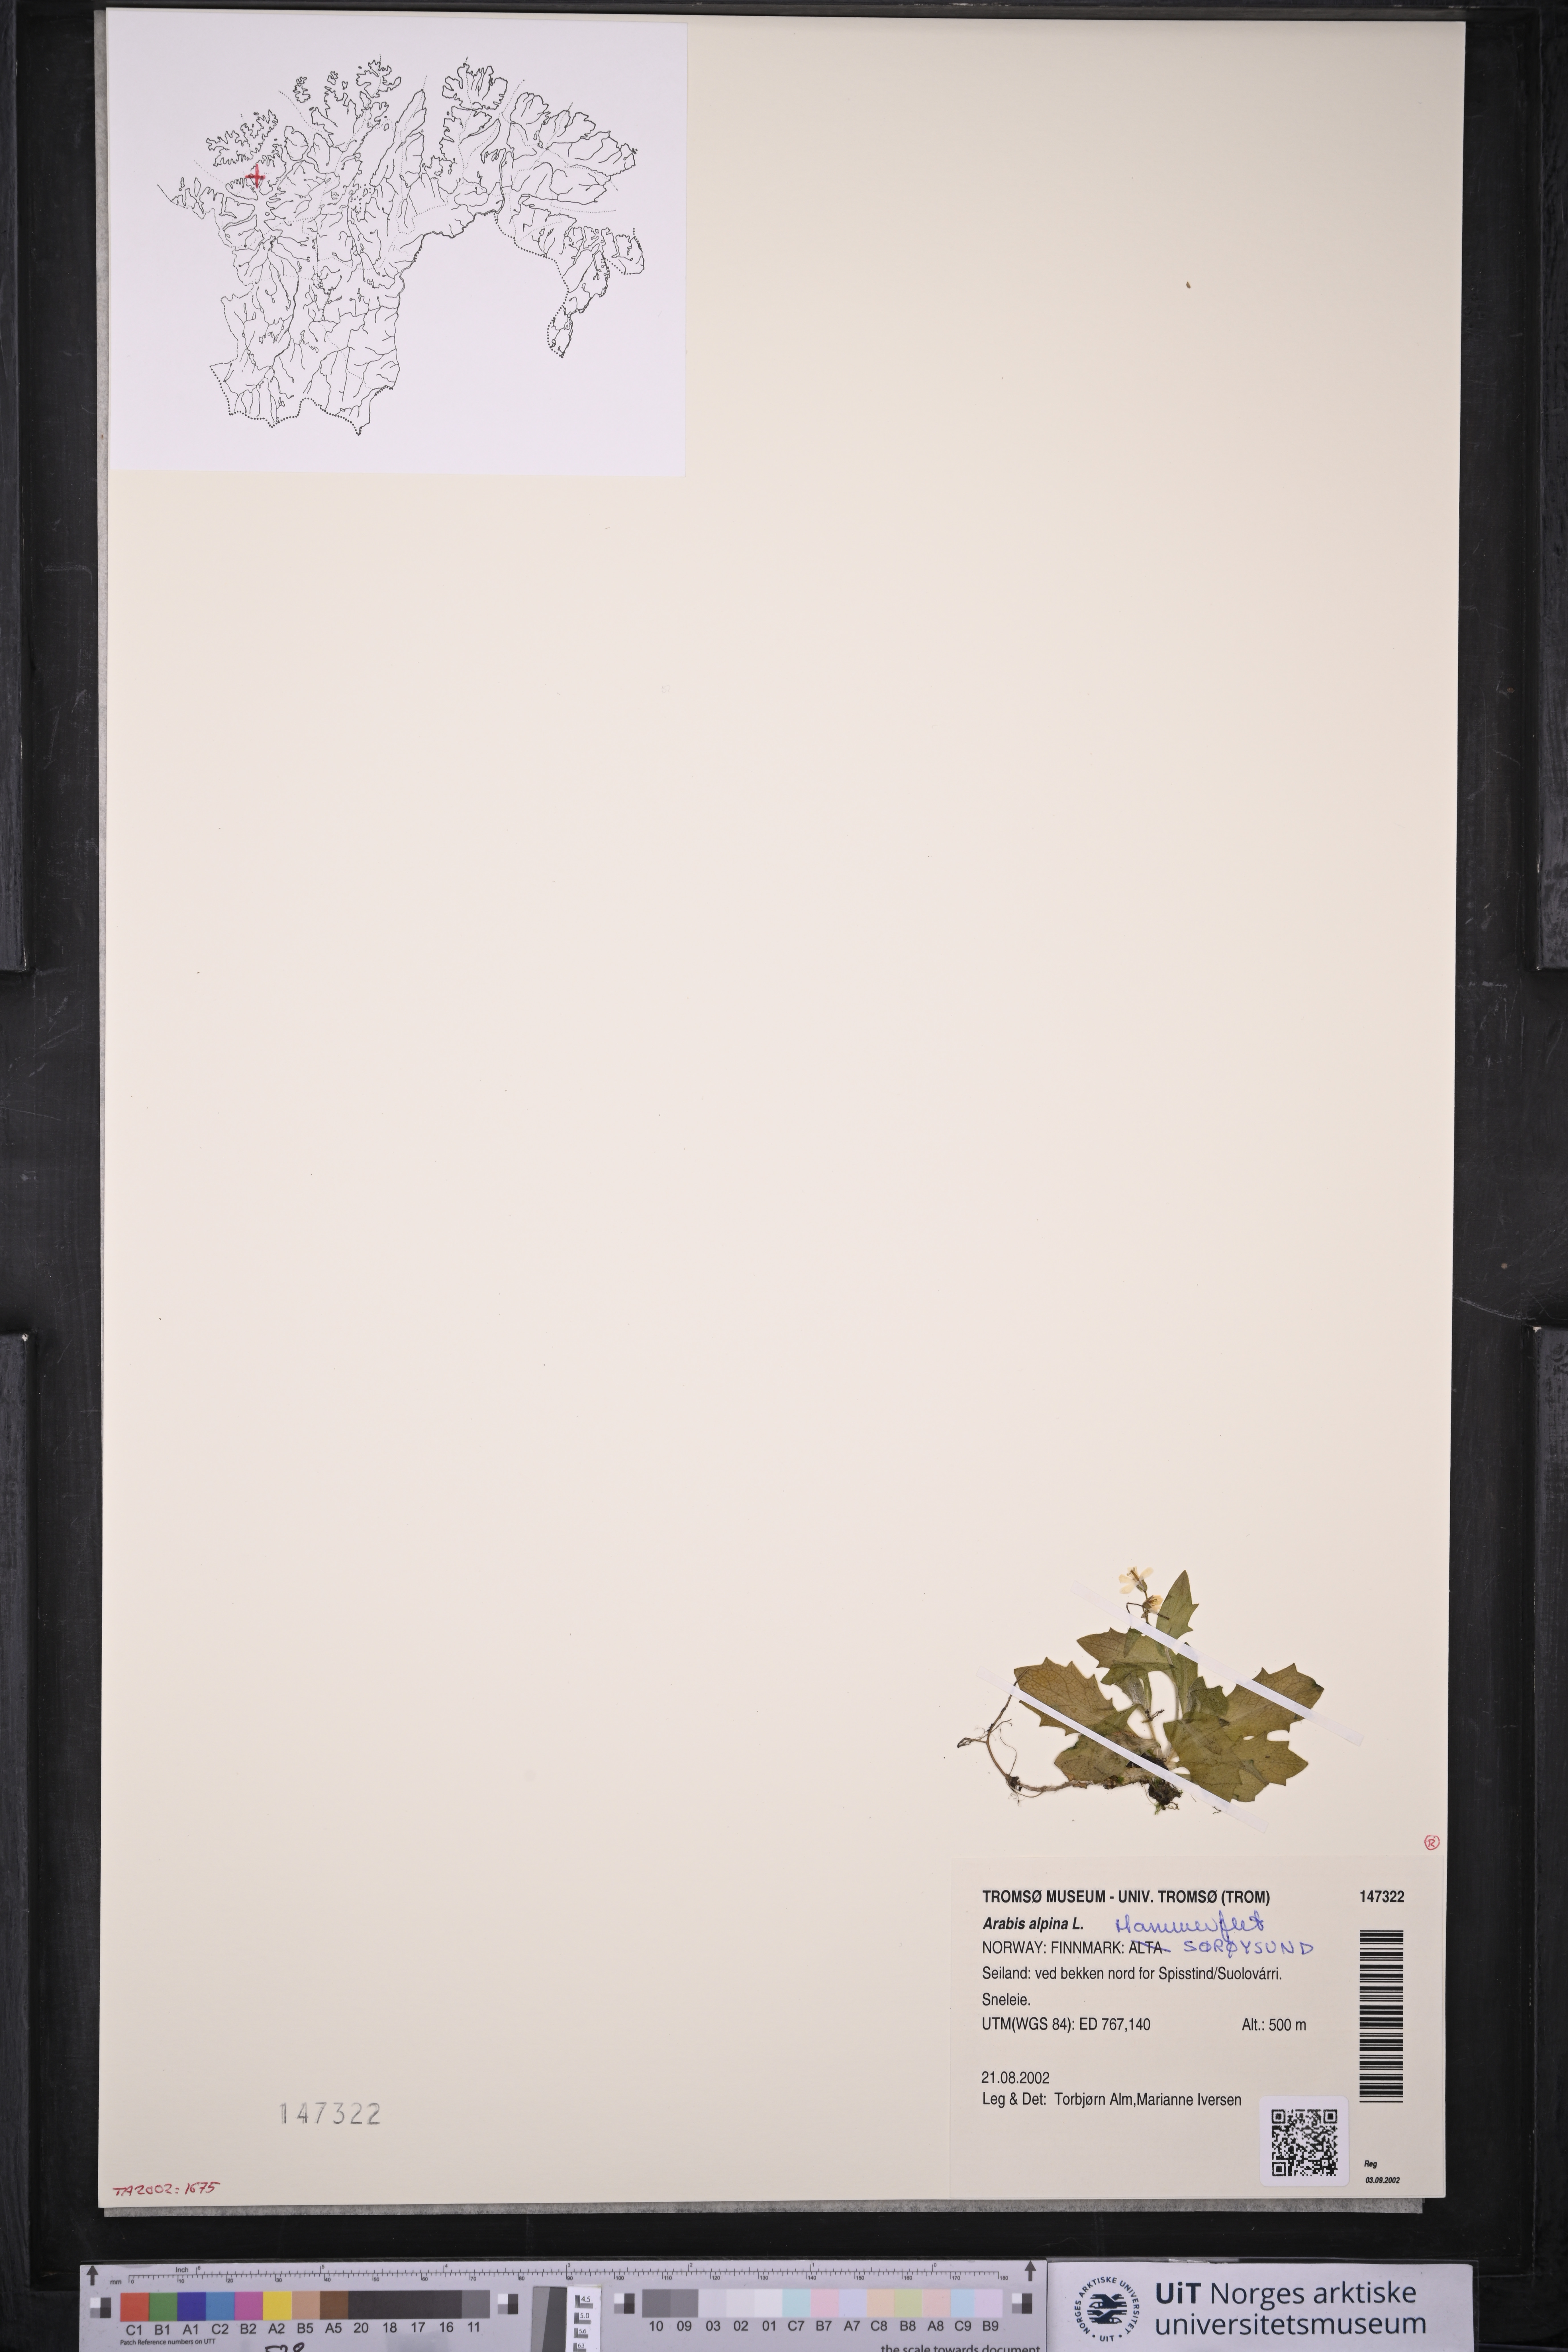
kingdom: Plantae
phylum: Tracheophyta
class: Magnoliopsida
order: Brassicales
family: Brassicaceae
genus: Arabis
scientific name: Arabis alpina
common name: Alpine rock-cress
